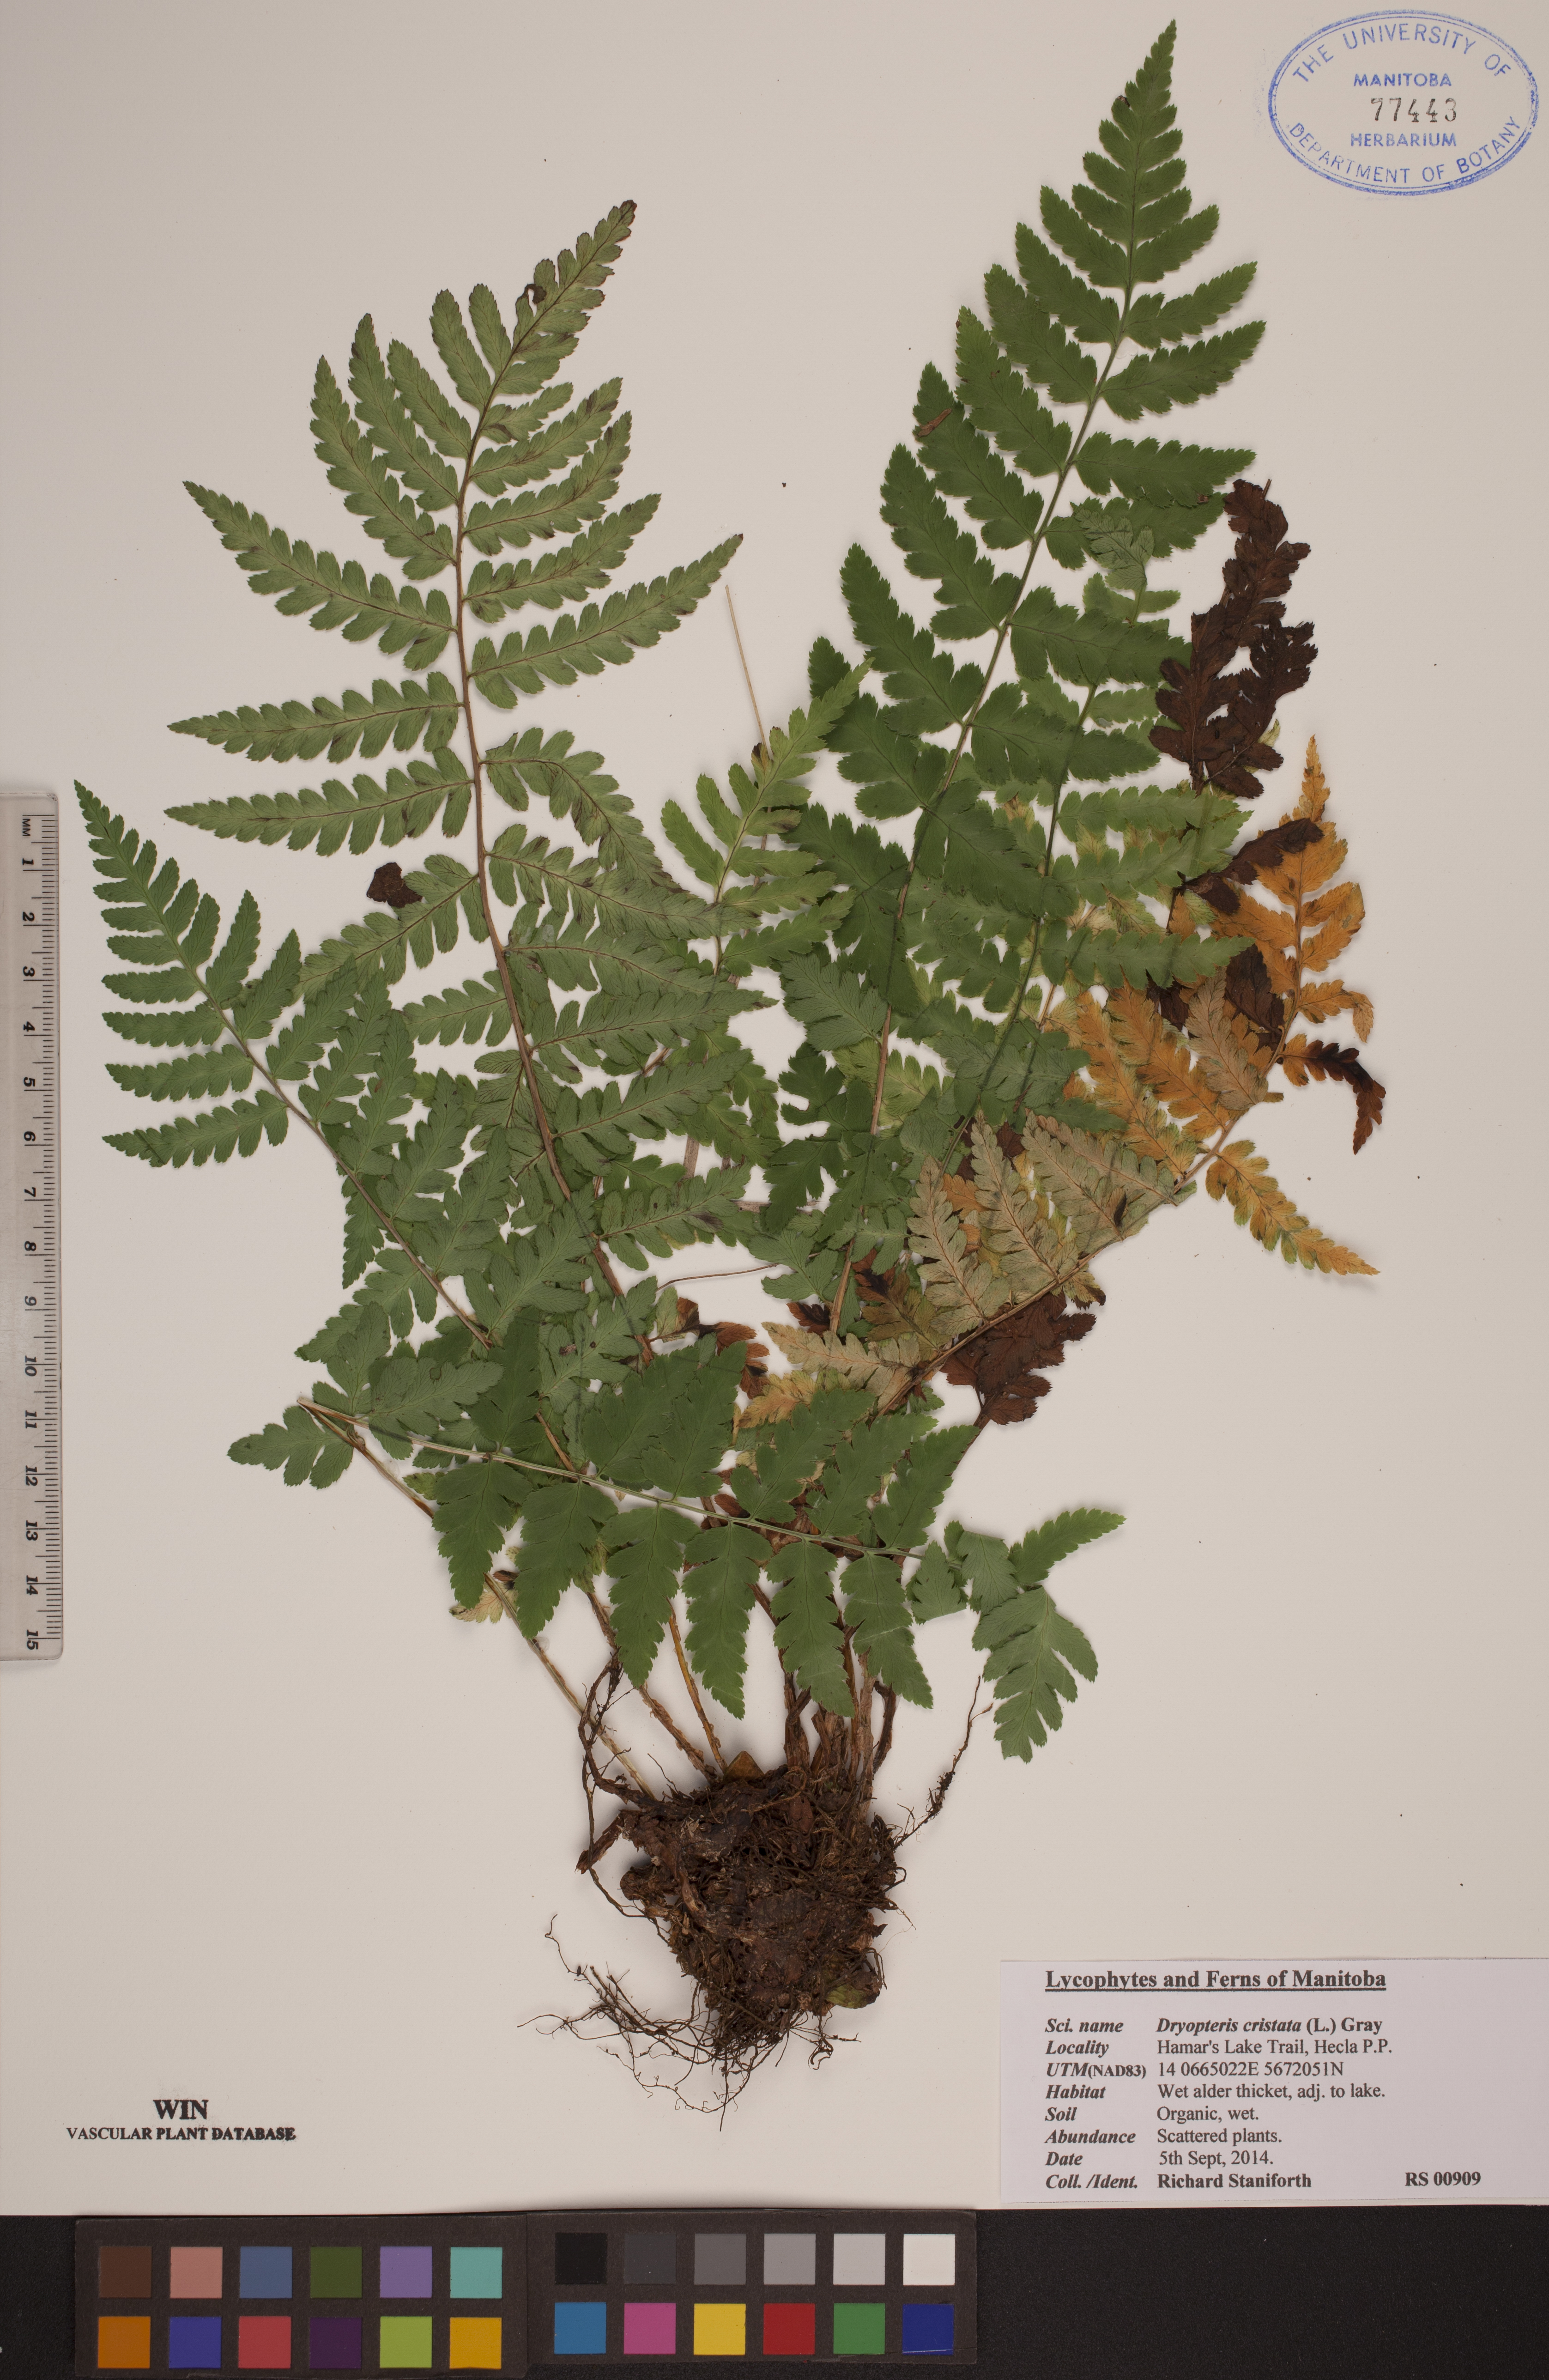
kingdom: Plantae
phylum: Tracheophyta
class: Polypodiopsida
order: Polypodiales
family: Dryopteridaceae
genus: Dryopteris
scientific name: Dryopteris cristata
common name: Crested wood fern
